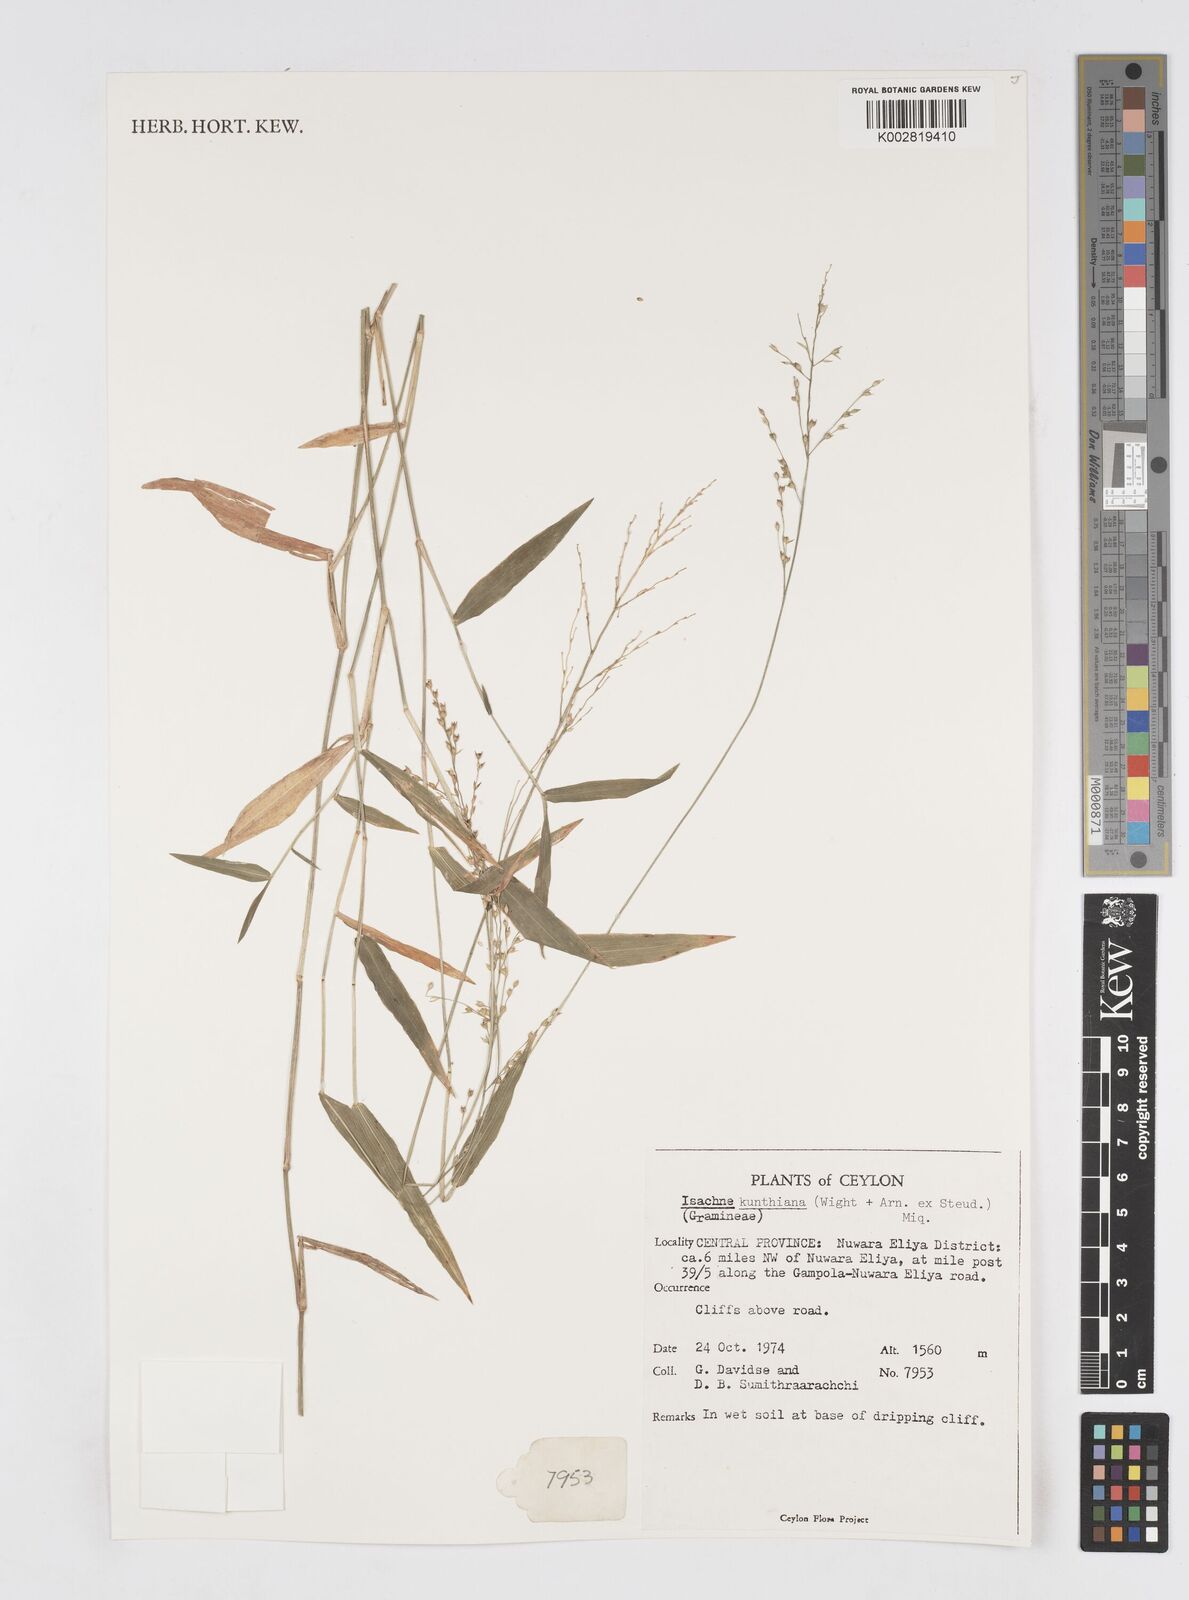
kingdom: Plantae
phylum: Tracheophyta
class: Liliopsida
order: Poales
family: Poaceae
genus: Isachne
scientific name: Isachne kunthiana
